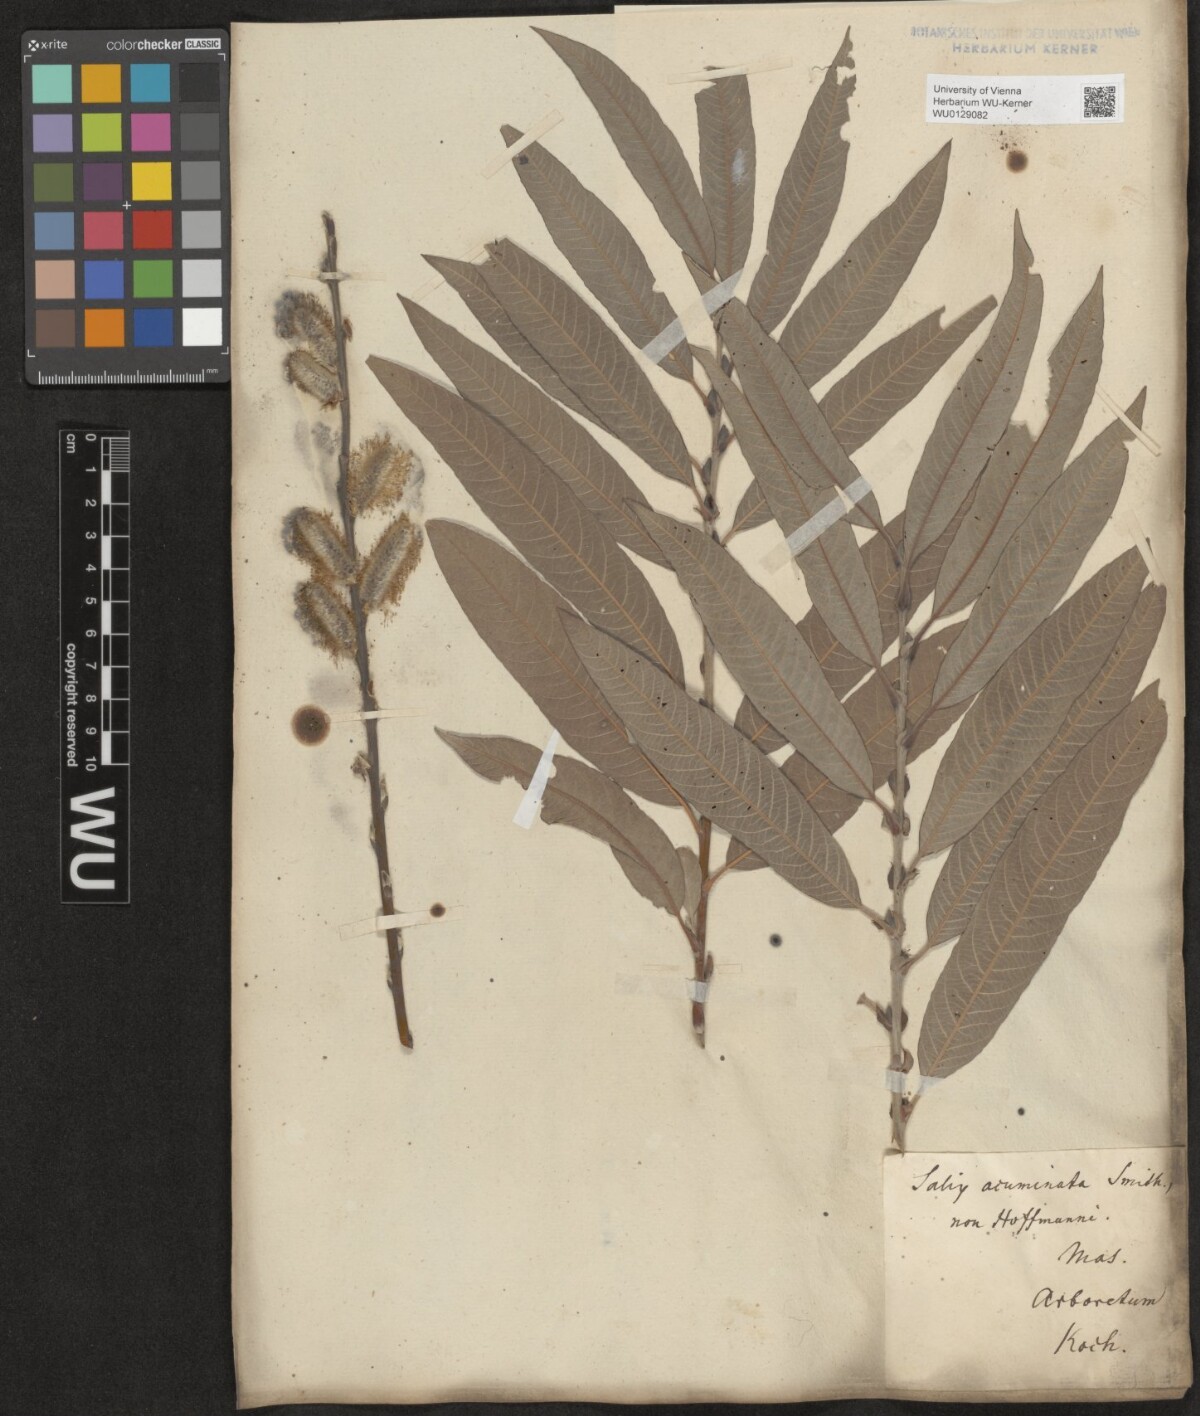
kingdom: Plantae
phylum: Tracheophyta
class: Magnoliopsida
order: Malpighiales
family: Salicaceae
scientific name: Salicaceae
